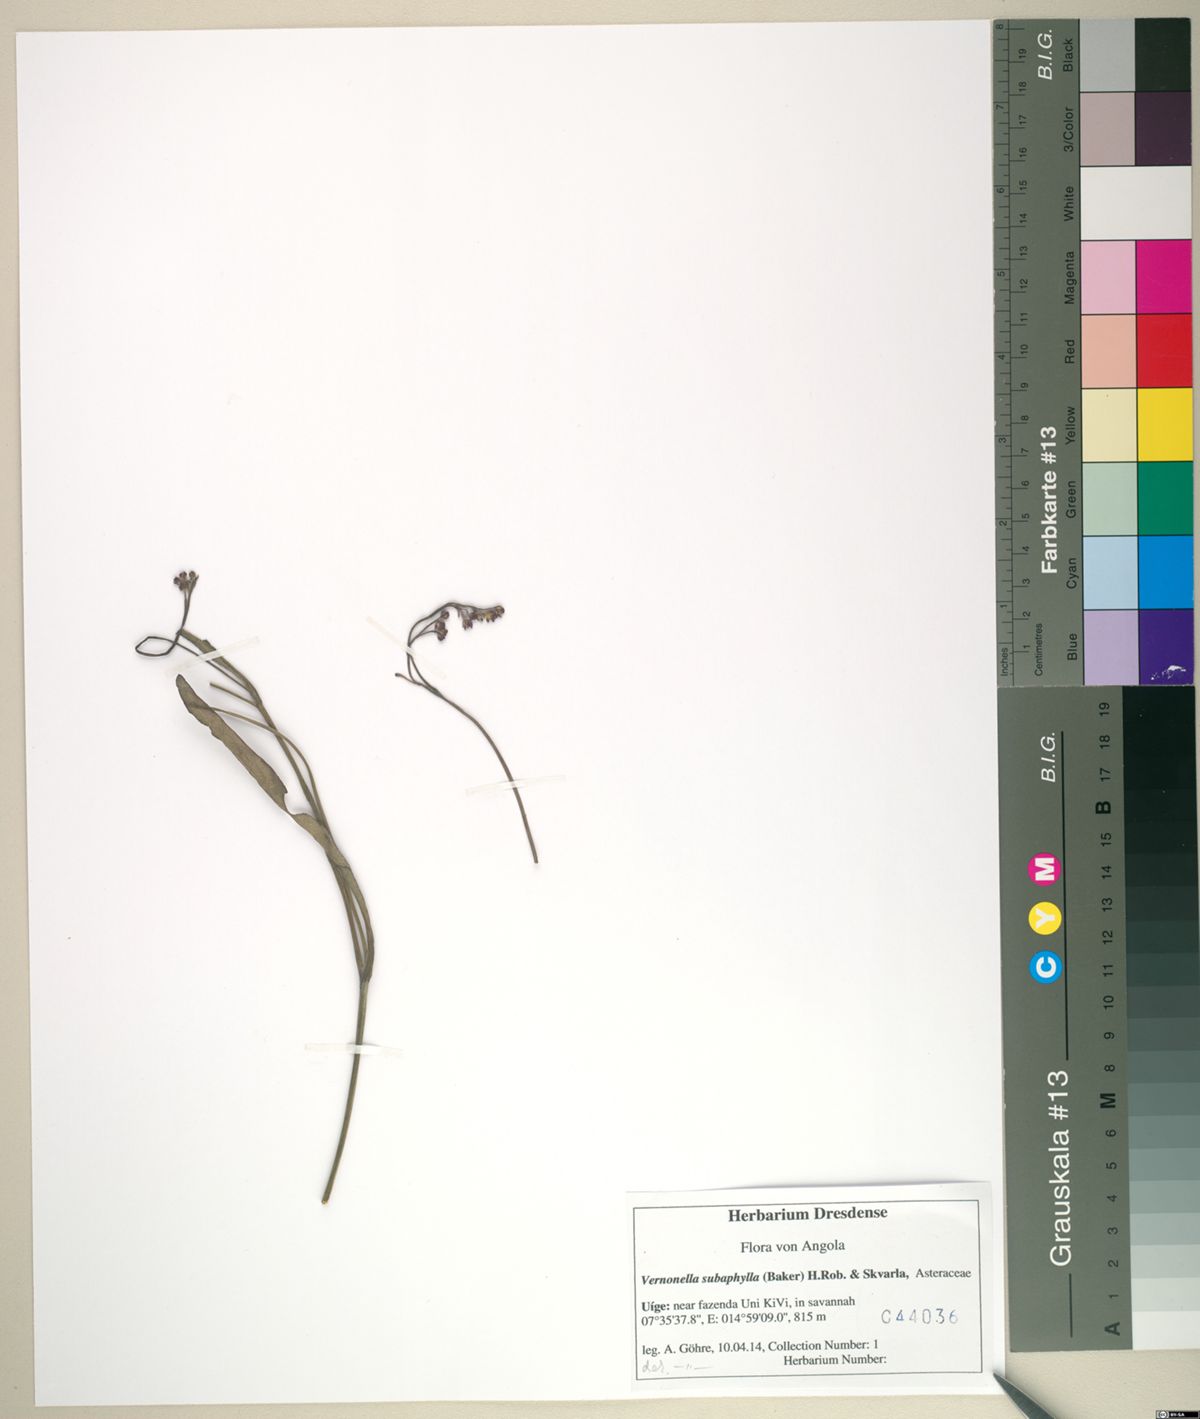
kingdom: Plantae
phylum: Tracheophyta
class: Magnoliopsida
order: Asterales
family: Asteraceae
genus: Vernonella
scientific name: Vernonella subaphylla
